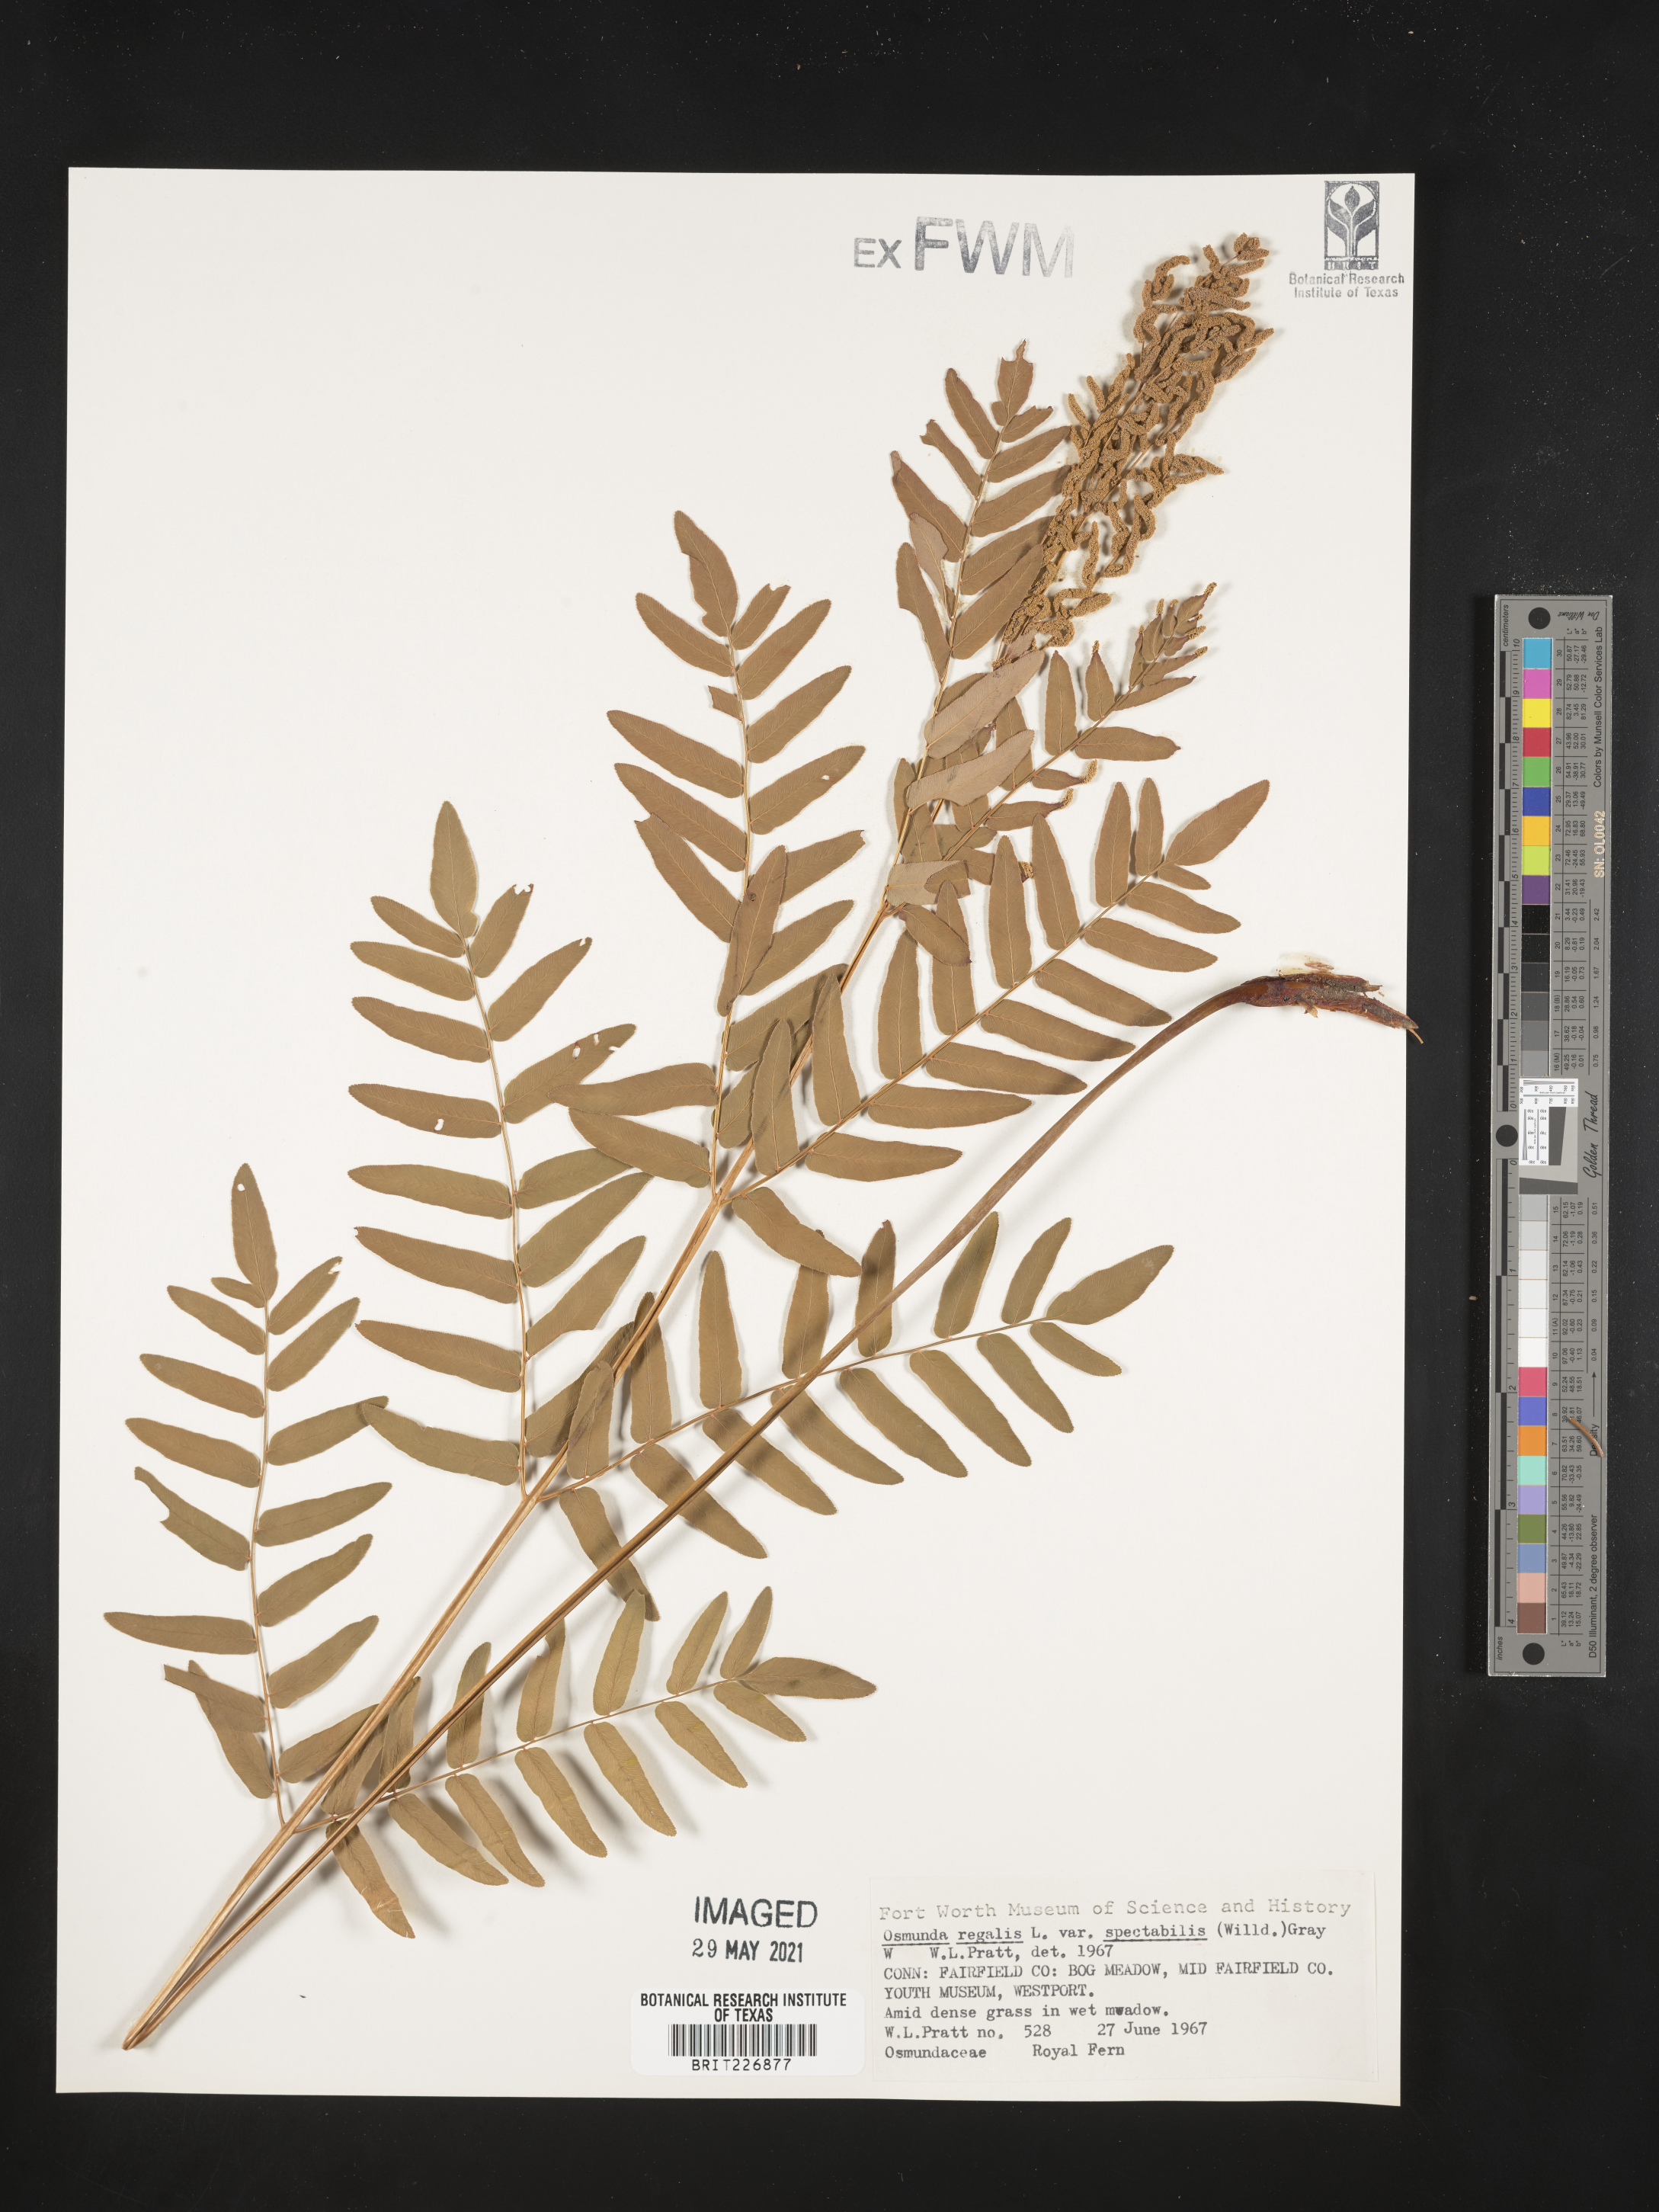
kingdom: Plantae
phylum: Tracheophyta
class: Polypodiopsida
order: Osmundales
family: Osmundaceae
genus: Osmunda
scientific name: Osmunda spectabilis
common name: American royal fern
